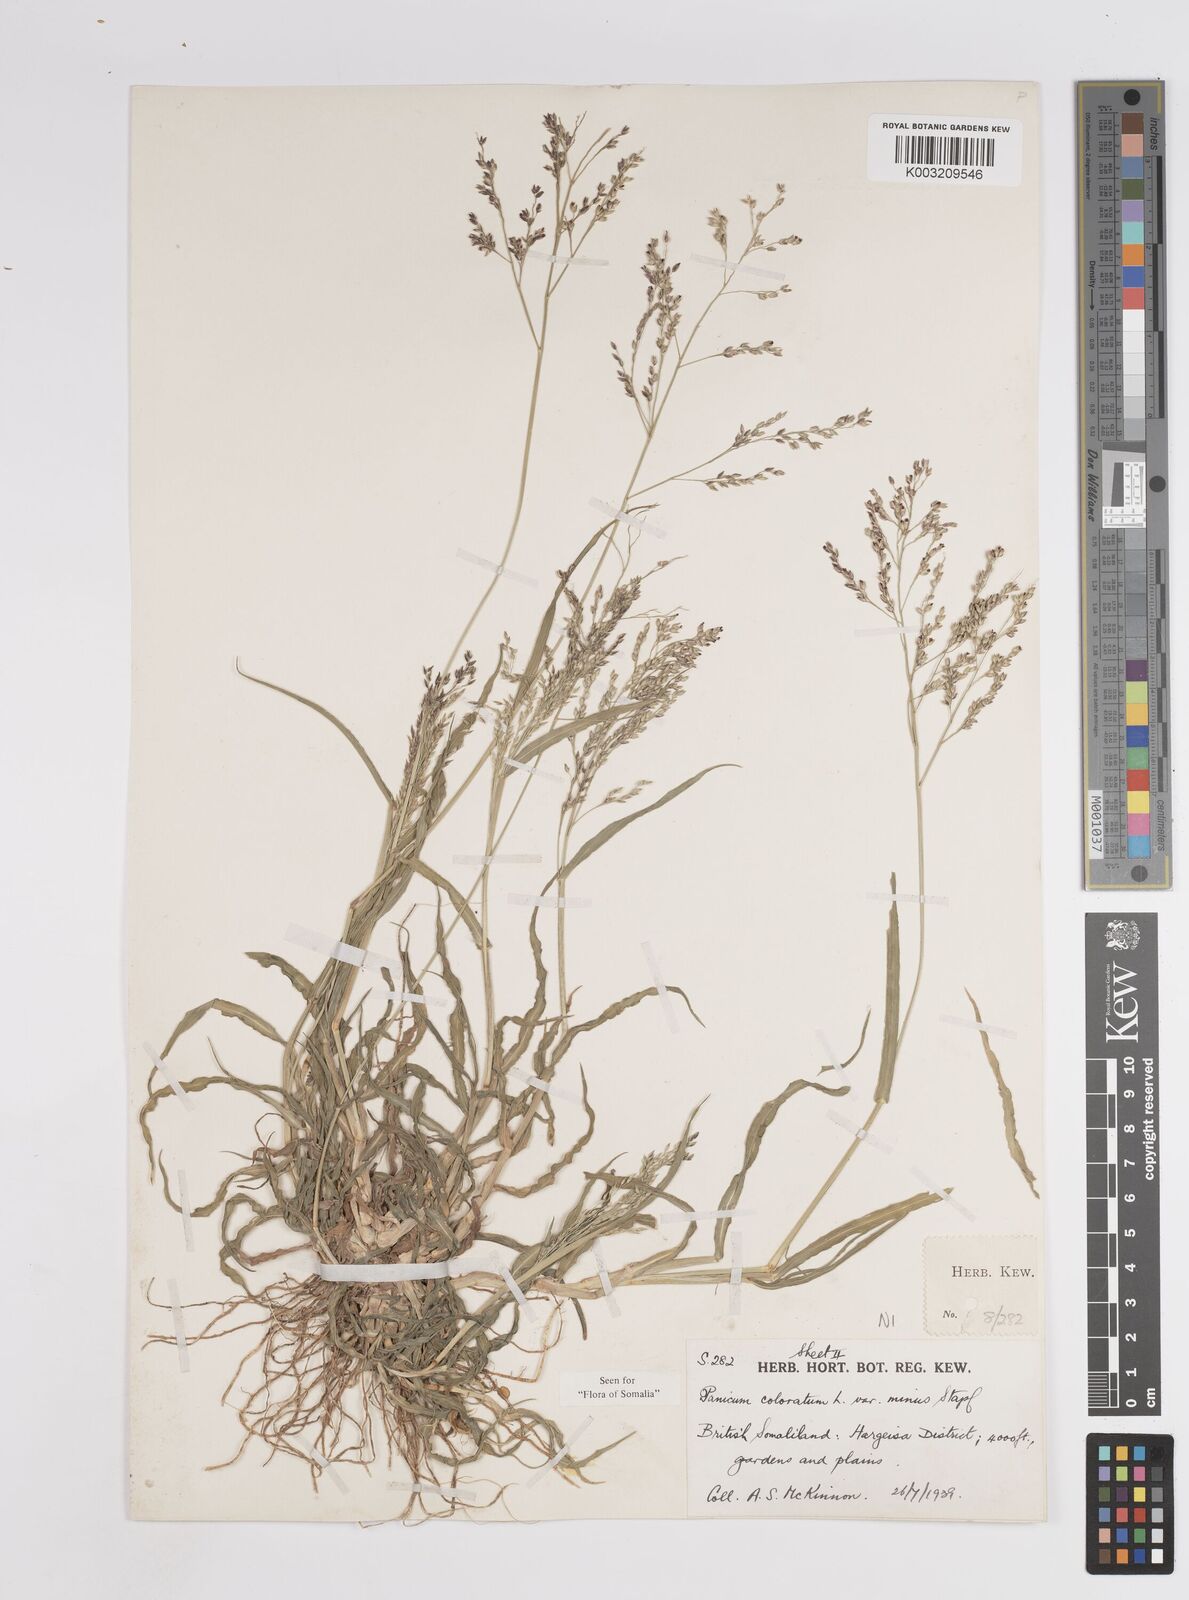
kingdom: Plantae
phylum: Tracheophyta
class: Liliopsida
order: Poales
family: Poaceae
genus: Panicum
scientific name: Panicum coloratum
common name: Kleingrass
